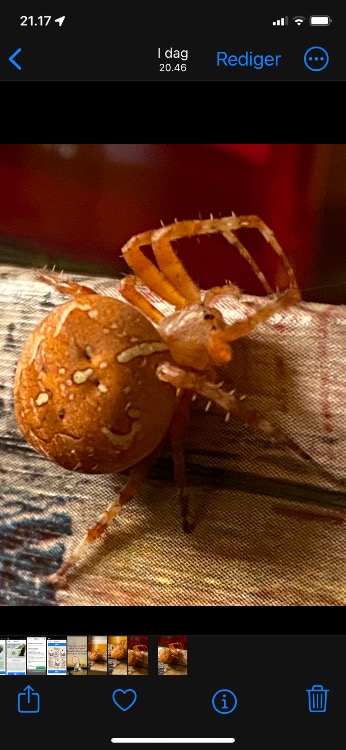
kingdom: Animalia
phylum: Arthropoda
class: Arachnida
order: Araneae
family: Araneidae
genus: Araneus
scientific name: Araneus
